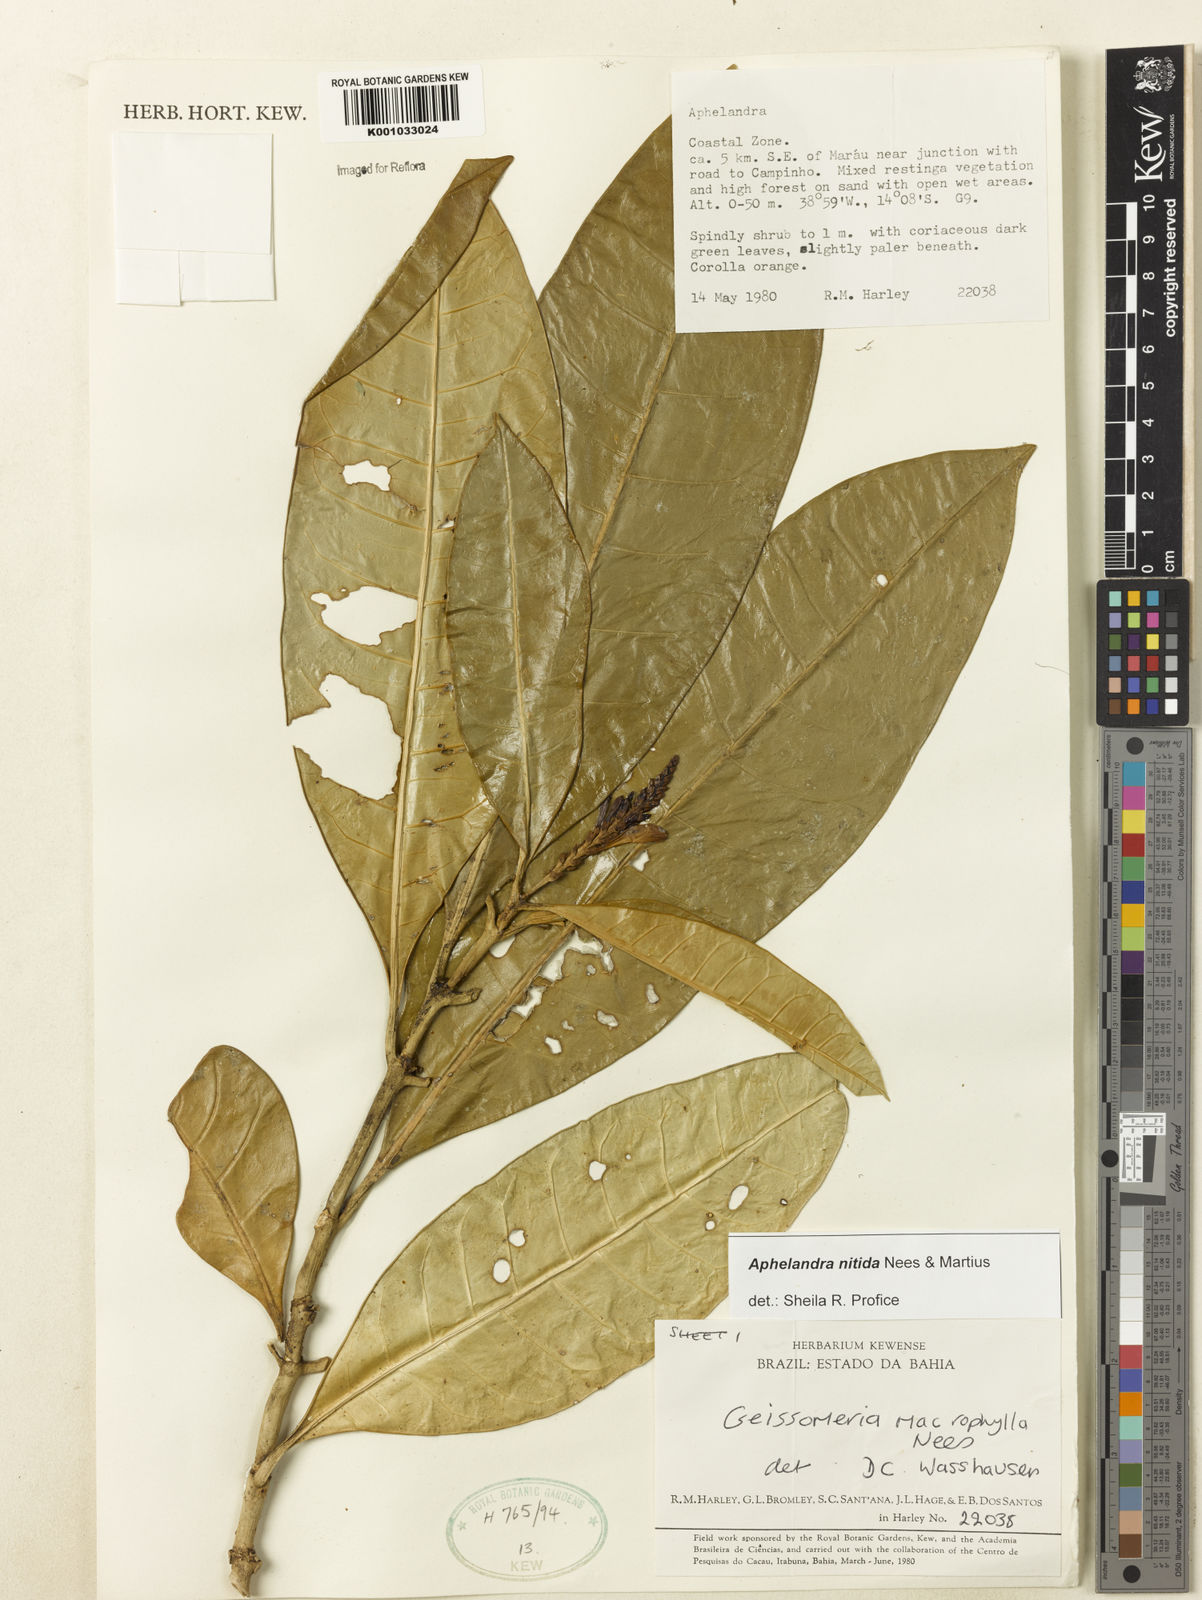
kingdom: Plantae
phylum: Tracheophyta
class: Magnoliopsida
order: Lamiales
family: Acanthaceae
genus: Aphelandra
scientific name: Aphelandra nitida
